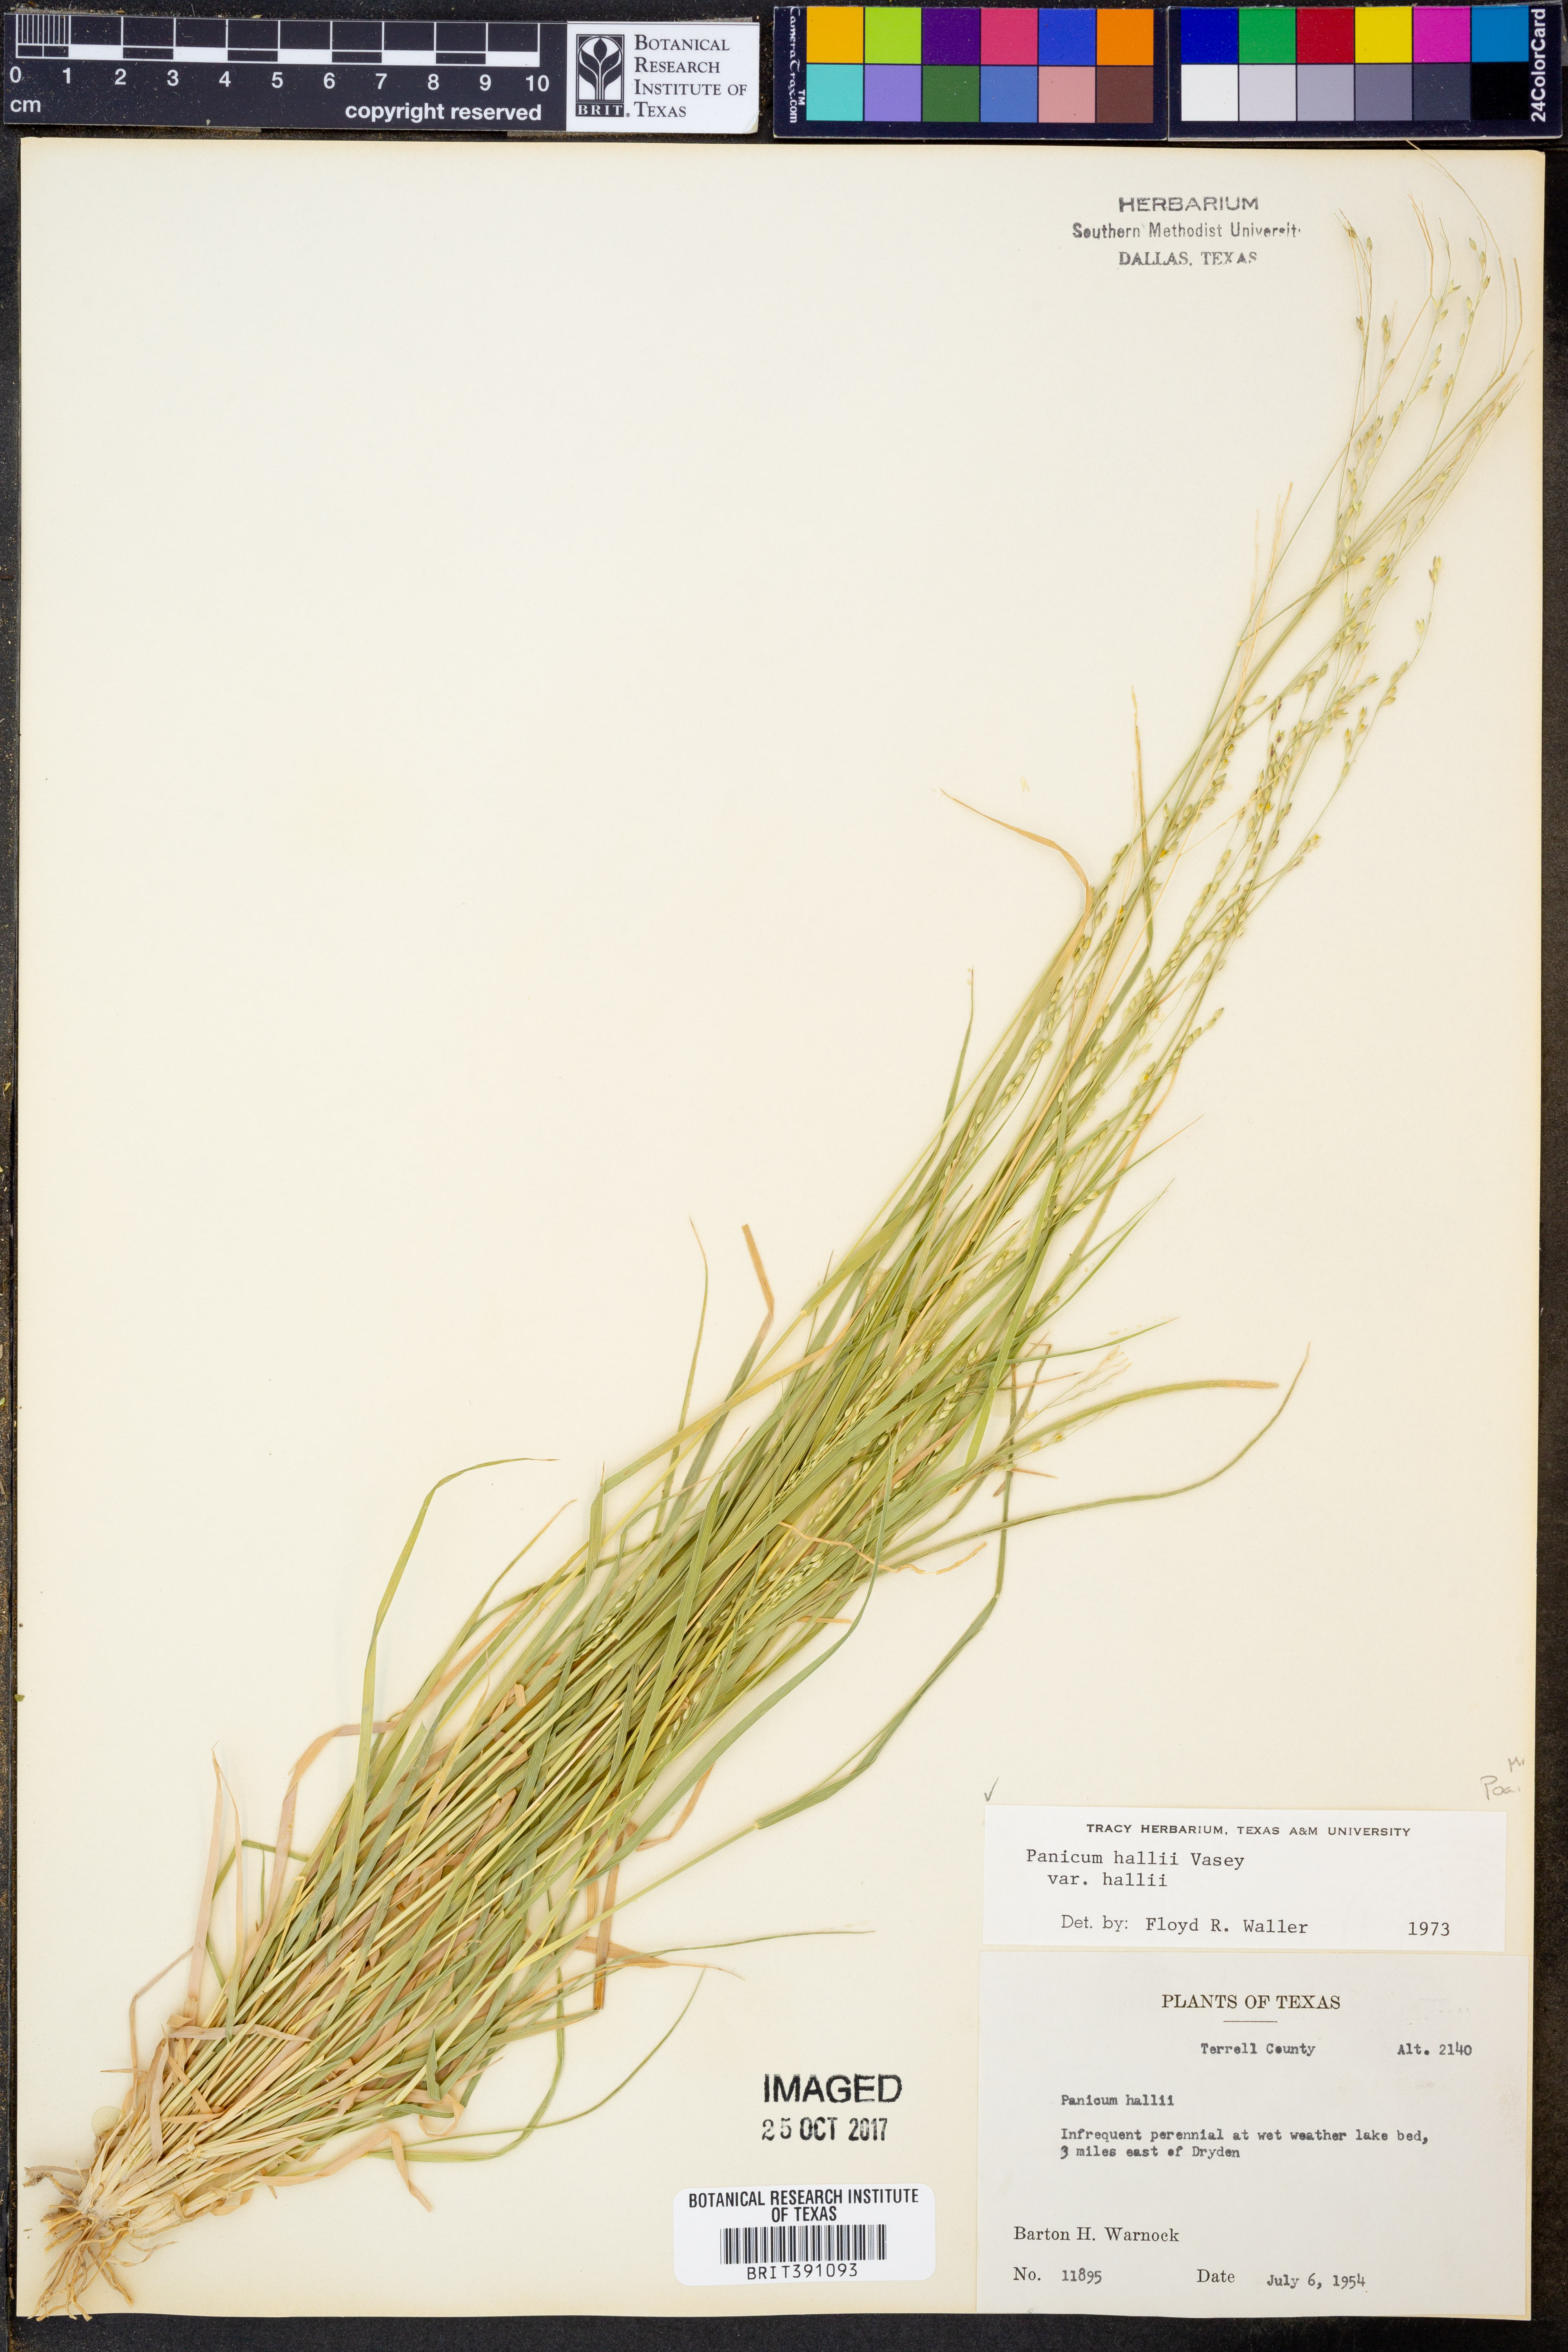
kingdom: Plantae
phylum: Tracheophyta
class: Liliopsida
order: Poales
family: Poaceae
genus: Panicum
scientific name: Panicum hallii
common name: Hall's witchgrass
